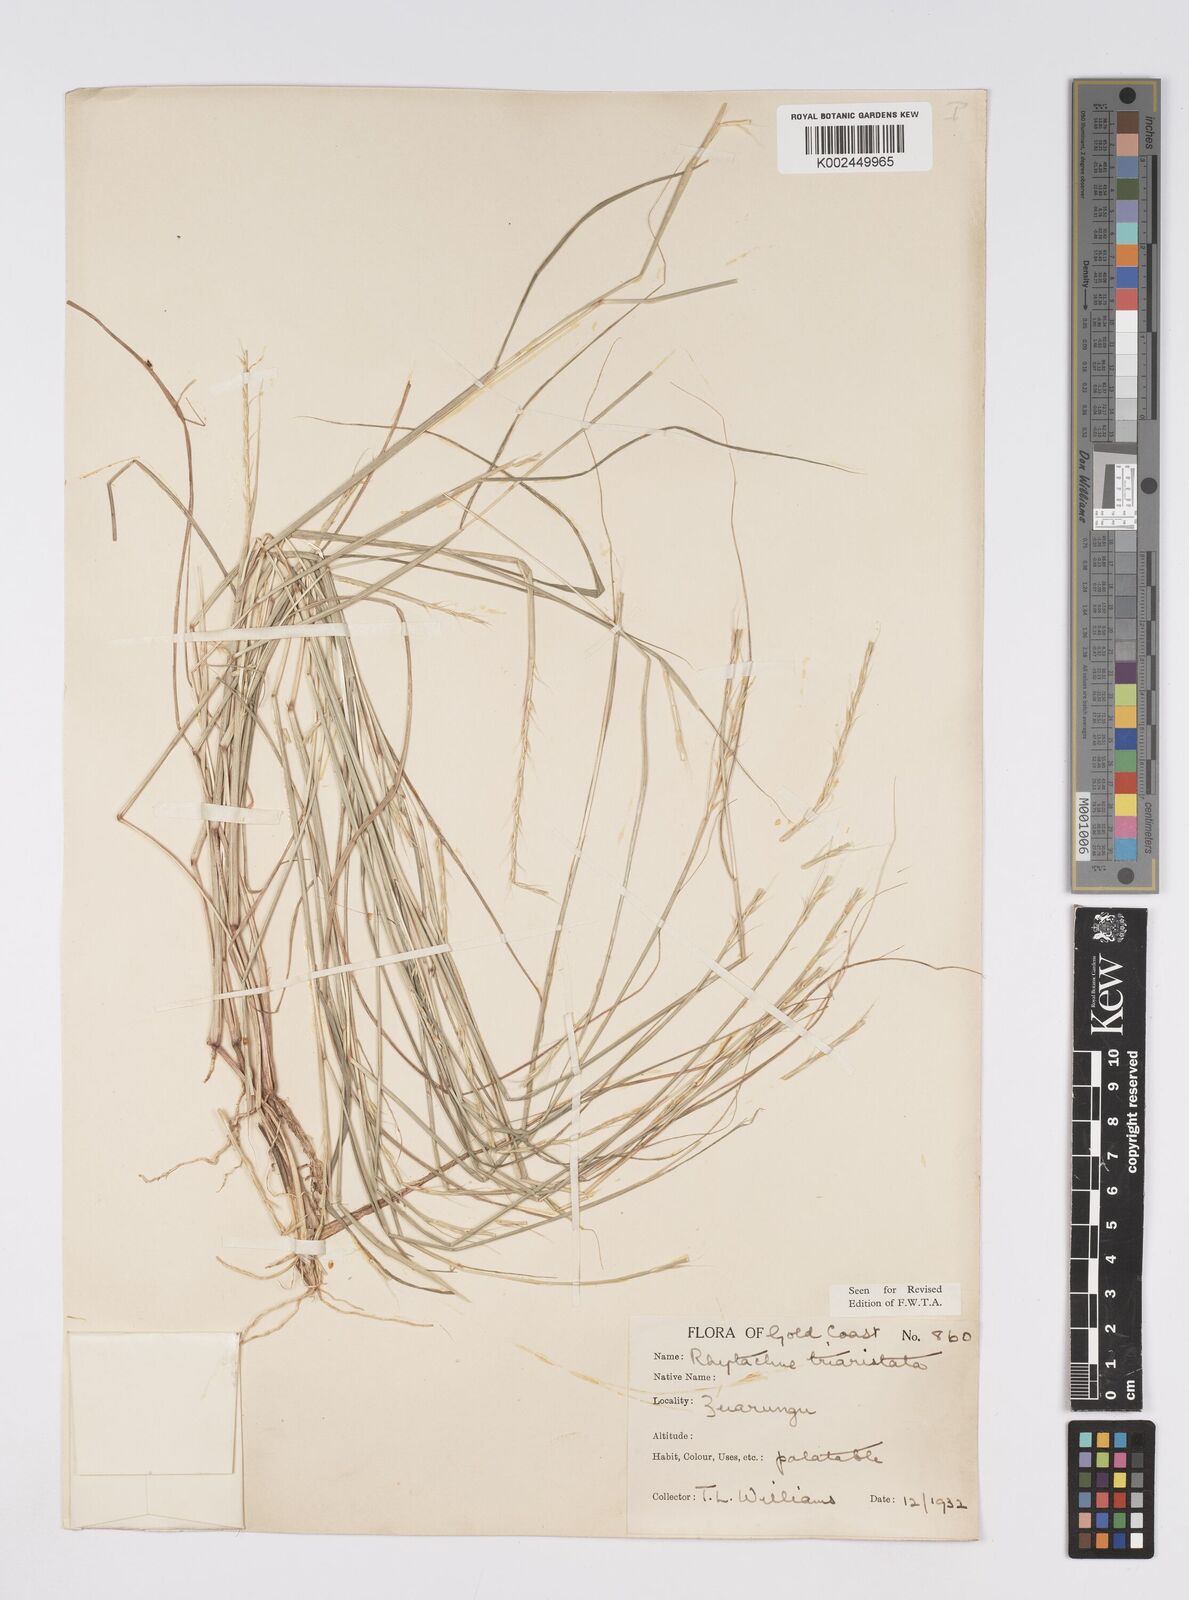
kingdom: Plantae
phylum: Tracheophyta
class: Liliopsida
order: Poales
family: Poaceae
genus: Rhytachne
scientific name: Rhytachne triaristata
